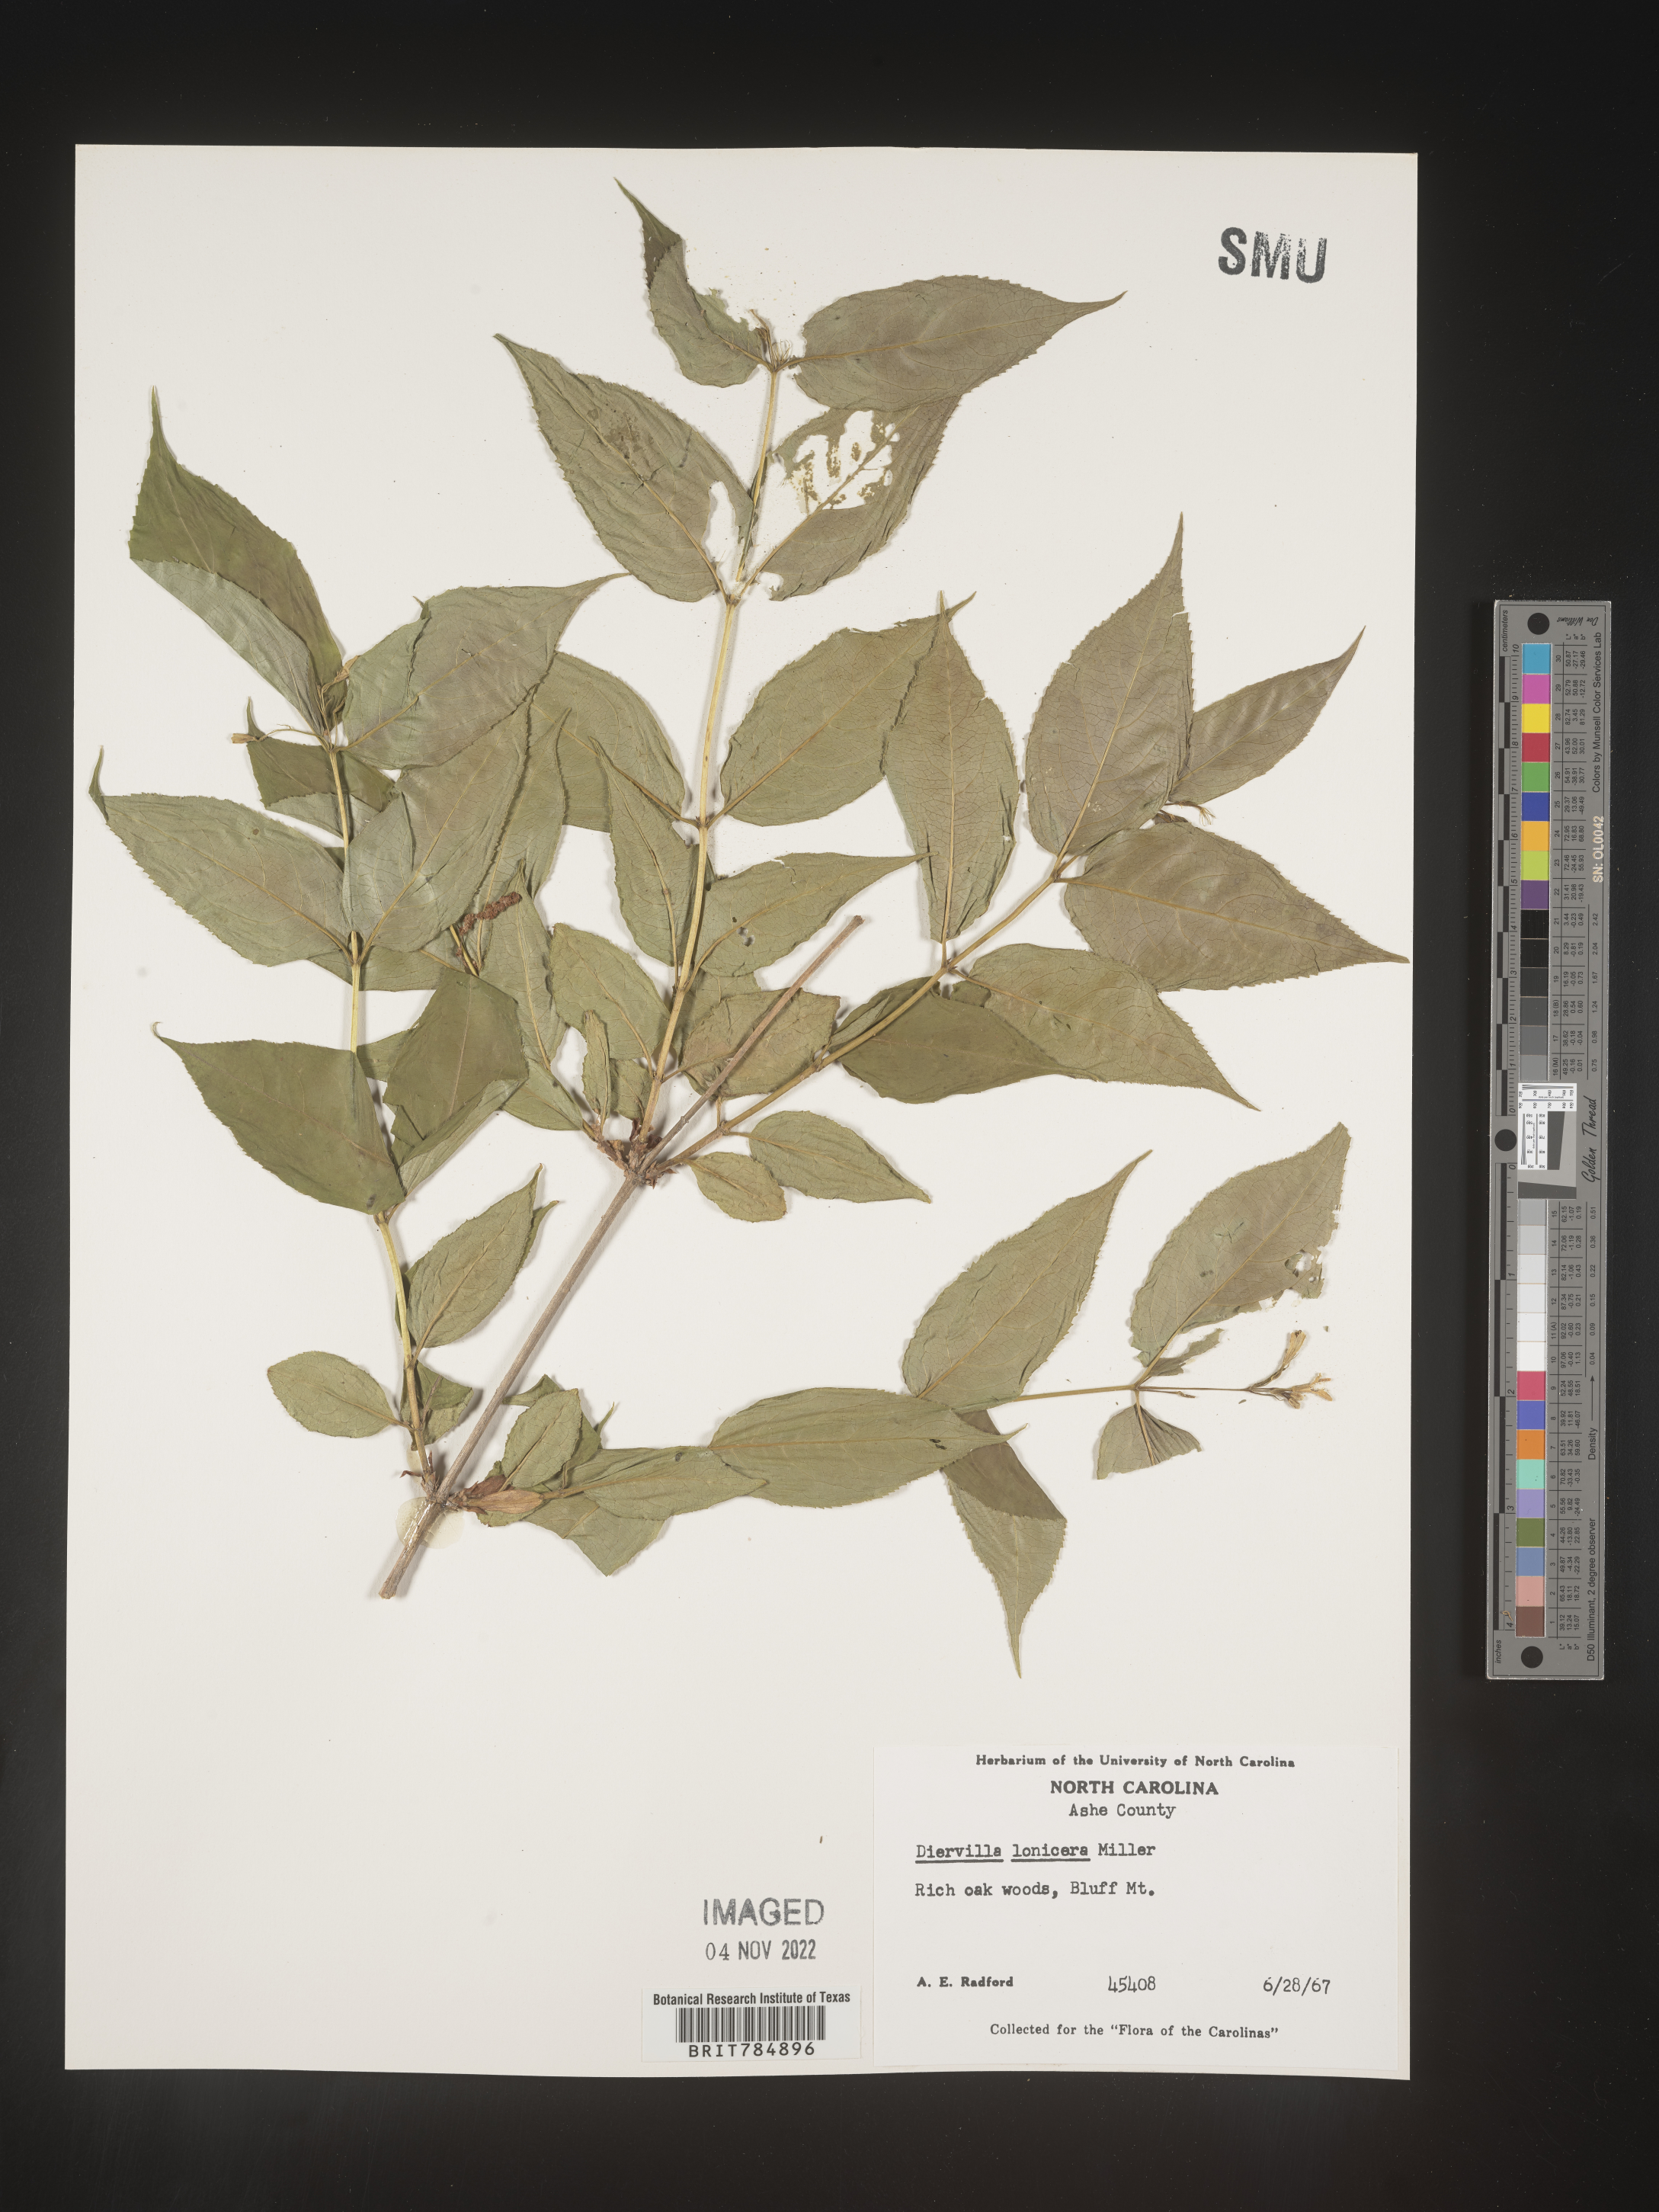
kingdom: Plantae
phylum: Tracheophyta
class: Magnoliopsida
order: Dipsacales
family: Caprifoliaceae
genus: Diervilla
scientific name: Diervilla lonicera
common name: Bush-honeysuckle
